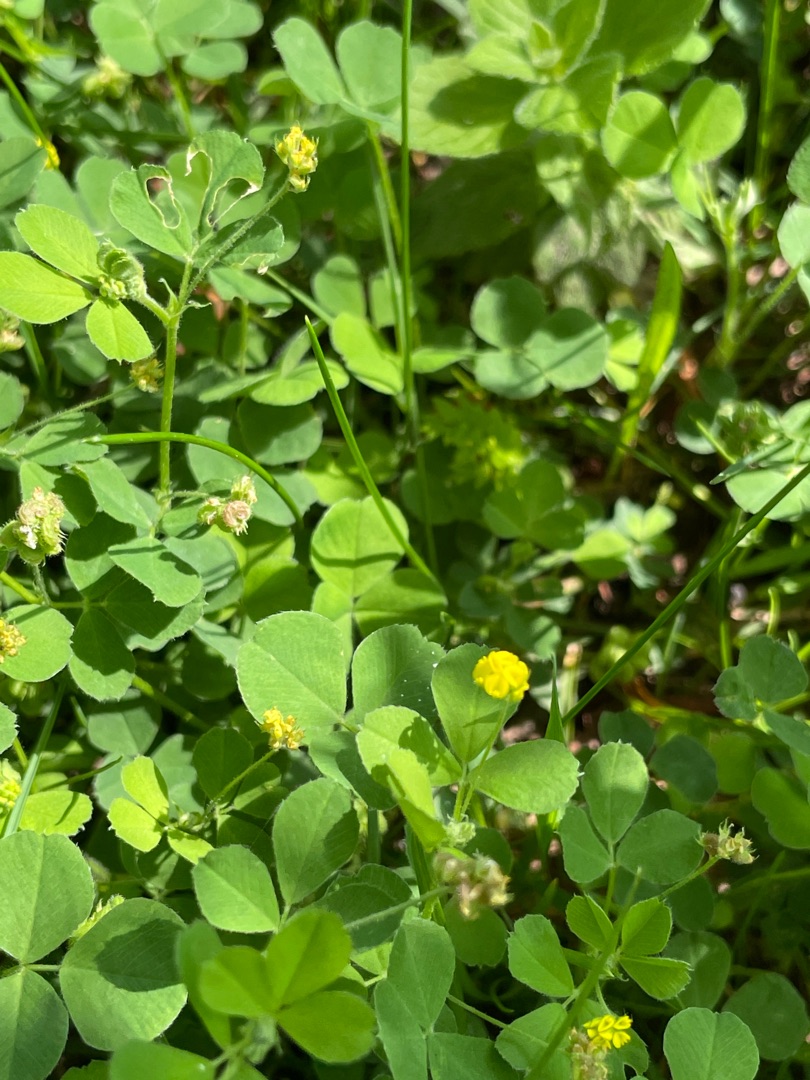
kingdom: Plantae
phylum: Tracheophyta
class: Magnoliopsida
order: Fabales
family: Fabaceae
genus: Medicago
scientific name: Medicago lupulina
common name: Humle-sneglebælg
